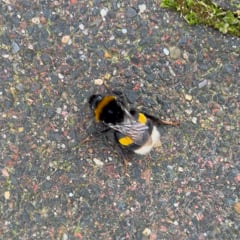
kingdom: Animalia
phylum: Arthropoda
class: Insecta
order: Hymenoptera
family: Apidae
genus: Bombus
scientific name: Bombus terrestris
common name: Buff-tailed bumblebee
